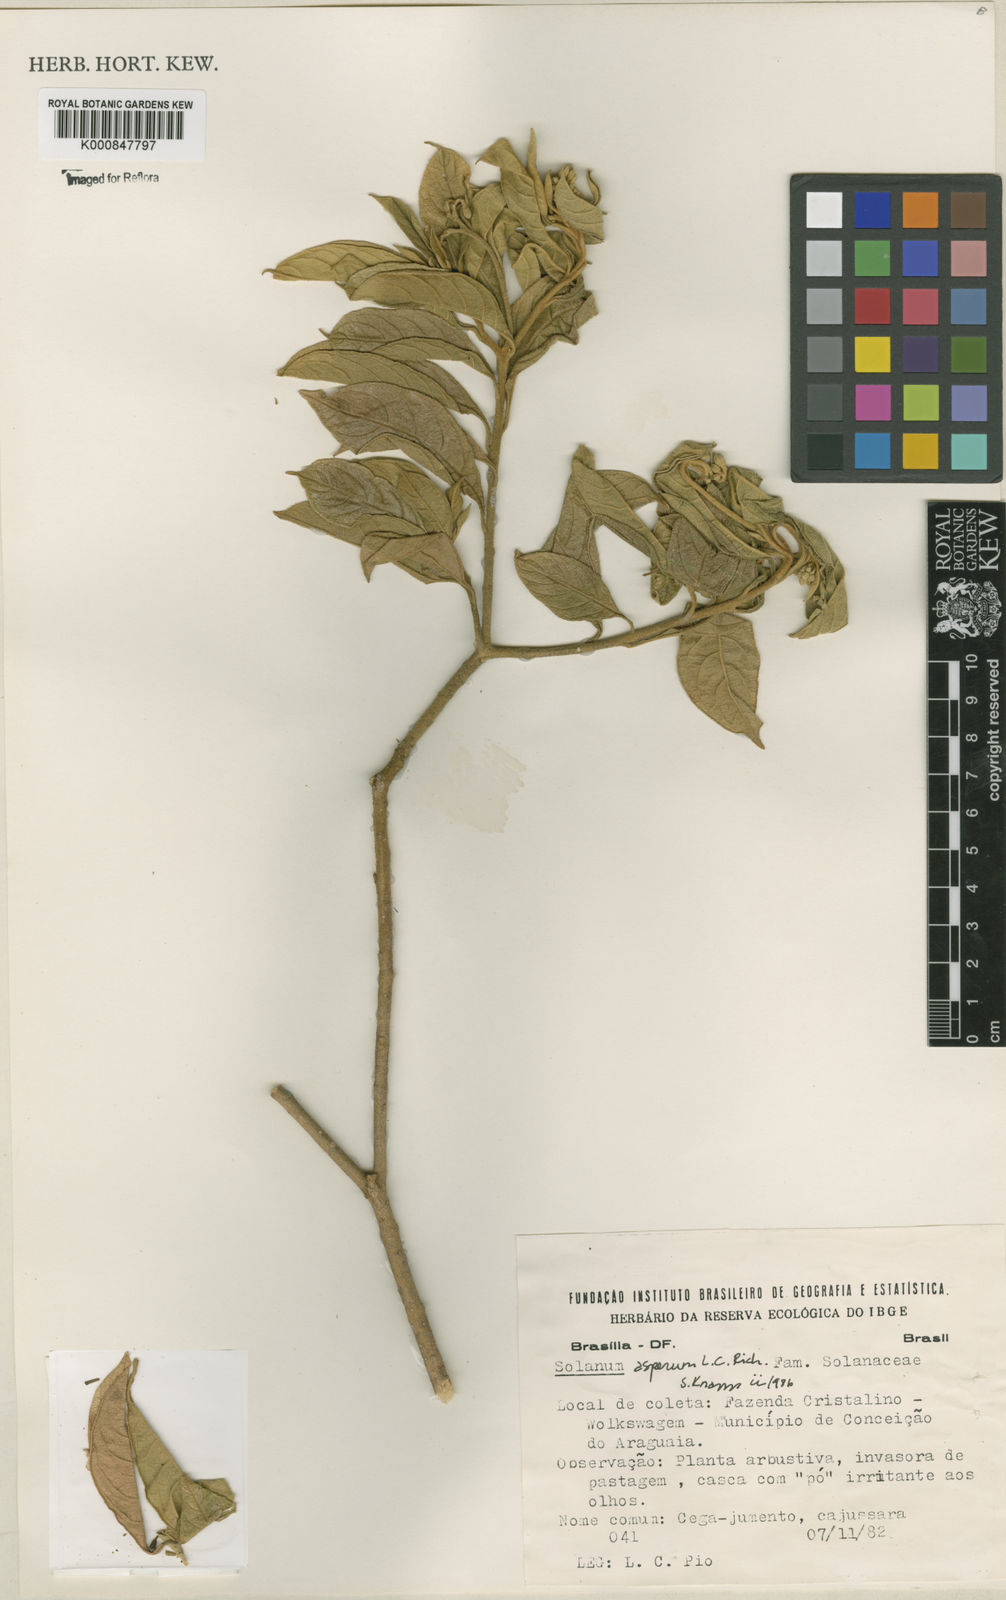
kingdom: Plantae
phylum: Tracheophyta
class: Magnoliopsida
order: Solanales
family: Solanaceae
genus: Solanum
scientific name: Solanum asperum
